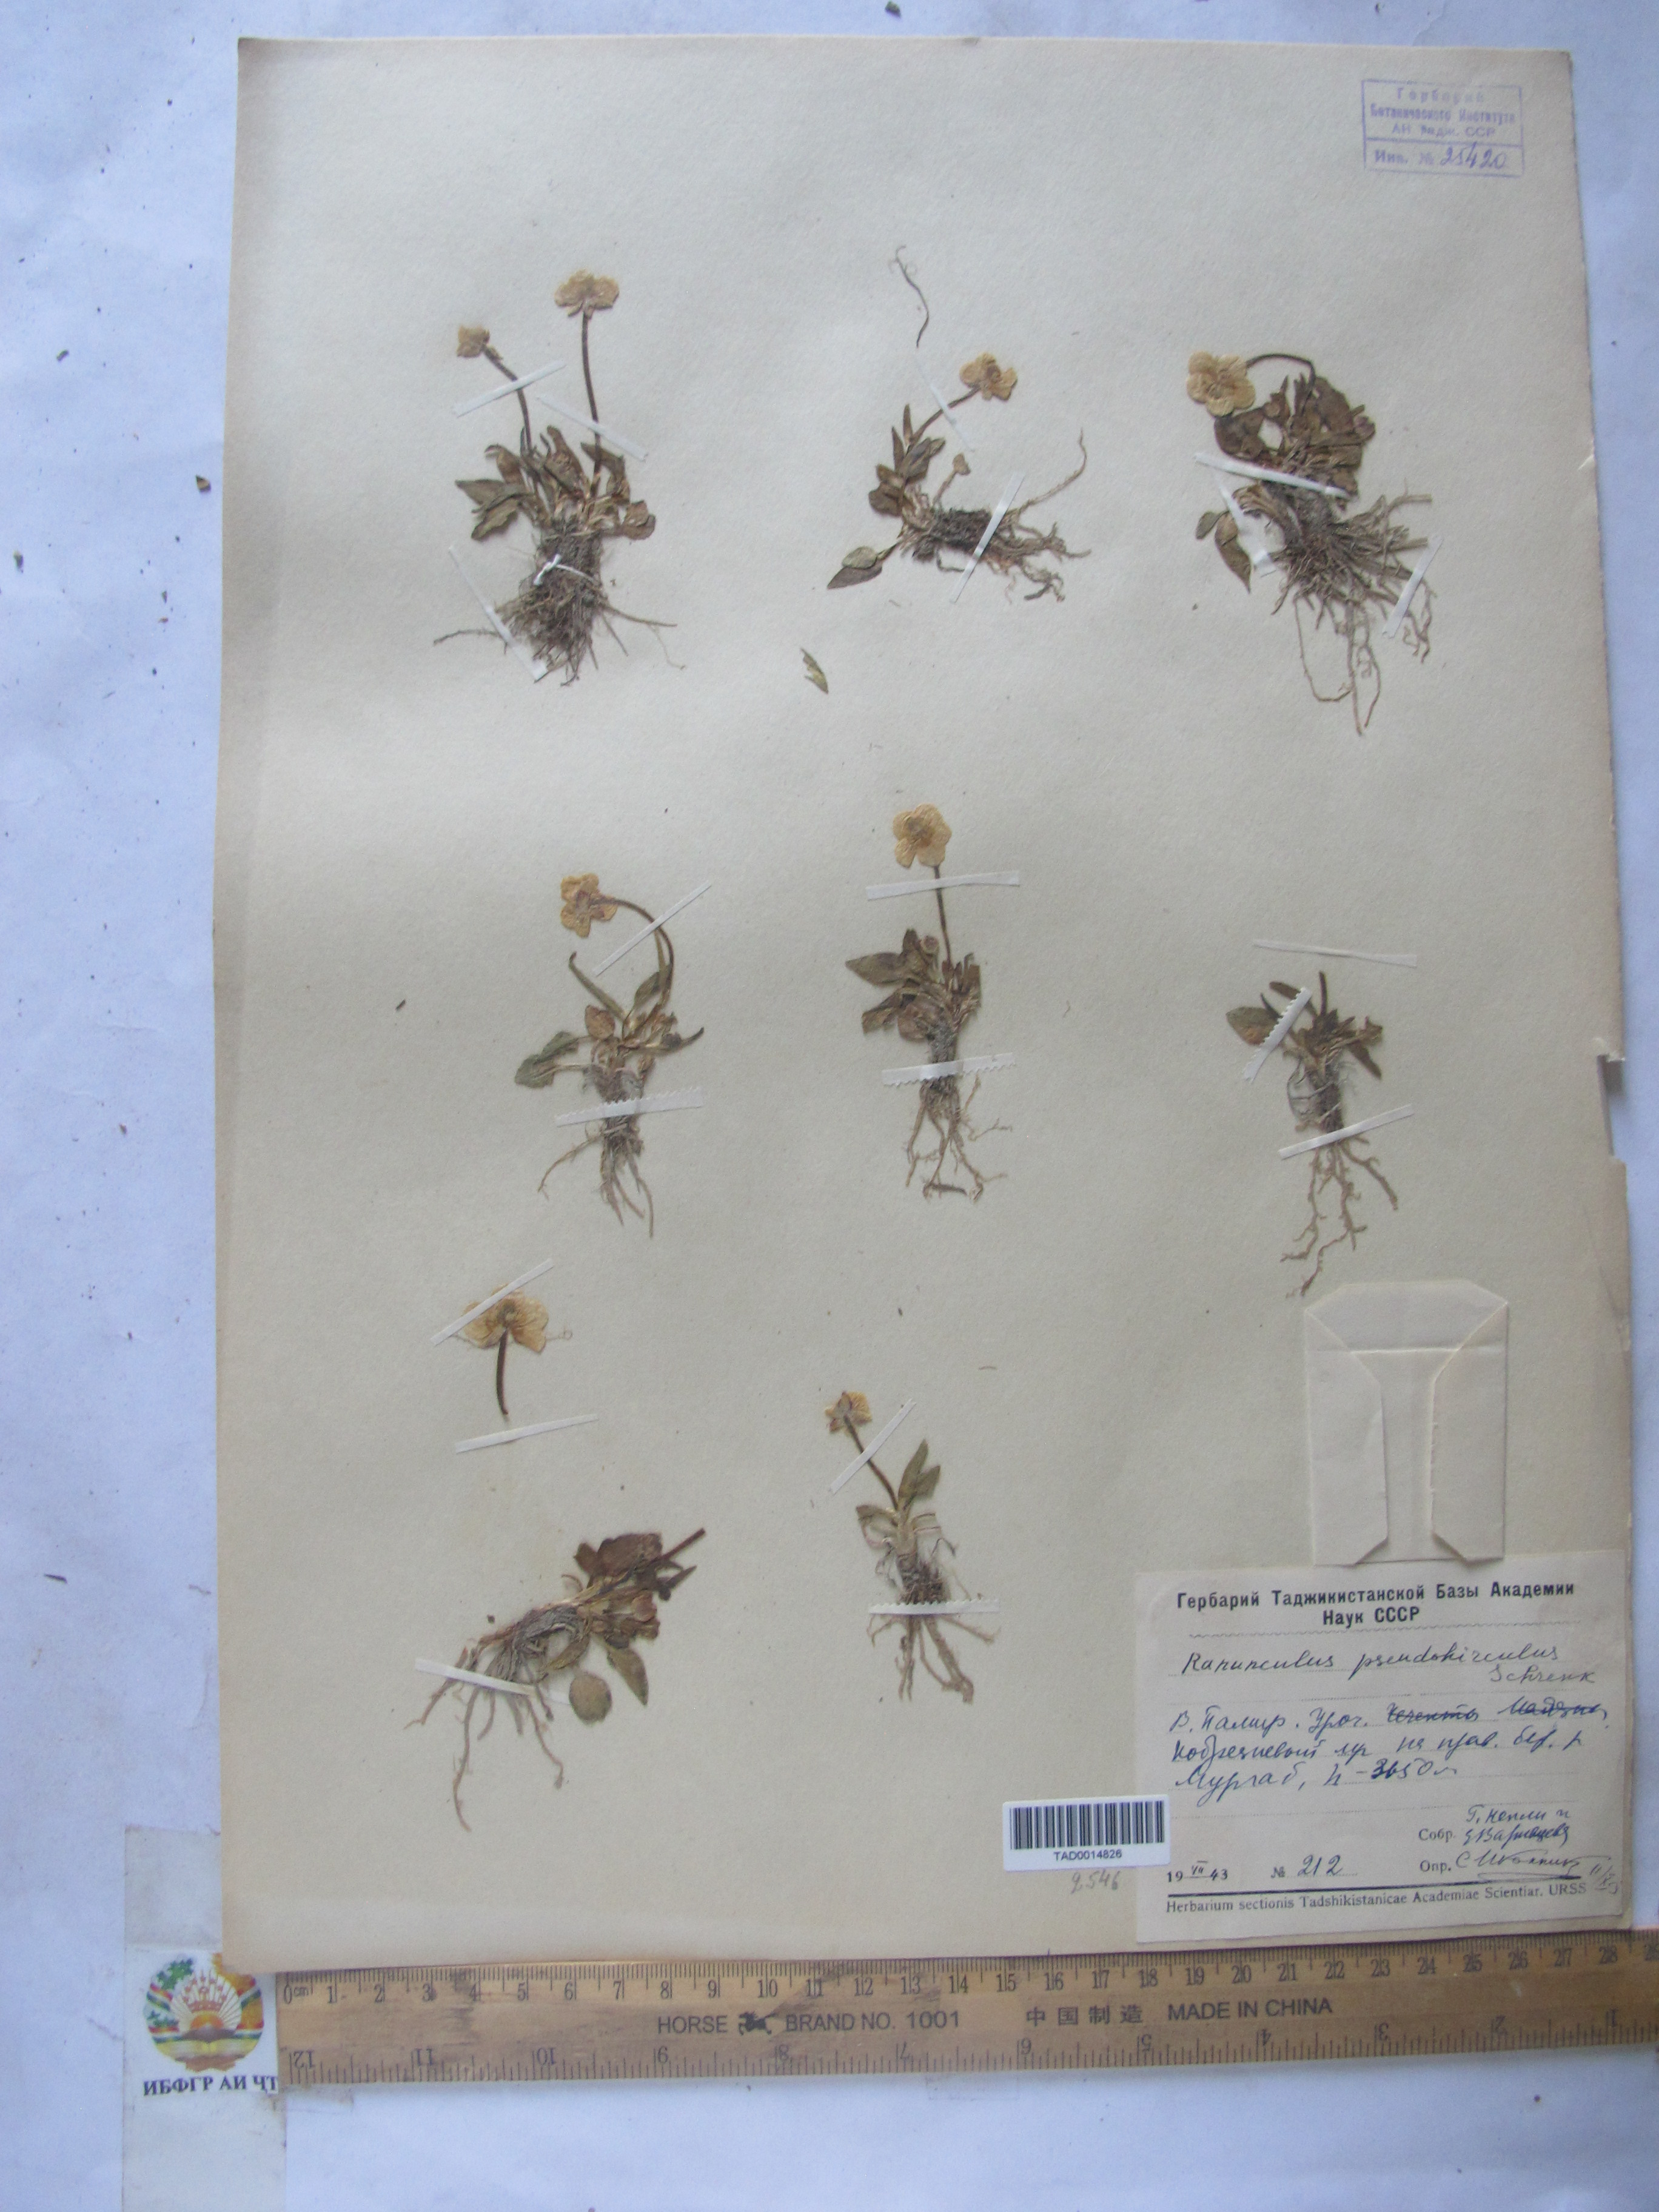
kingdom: Plantae
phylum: Tracheophyta
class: Magnoliopsida
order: Ranunculales
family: Ranunculaceae
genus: Ranunculus
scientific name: Ranunculus pseudohirculus
